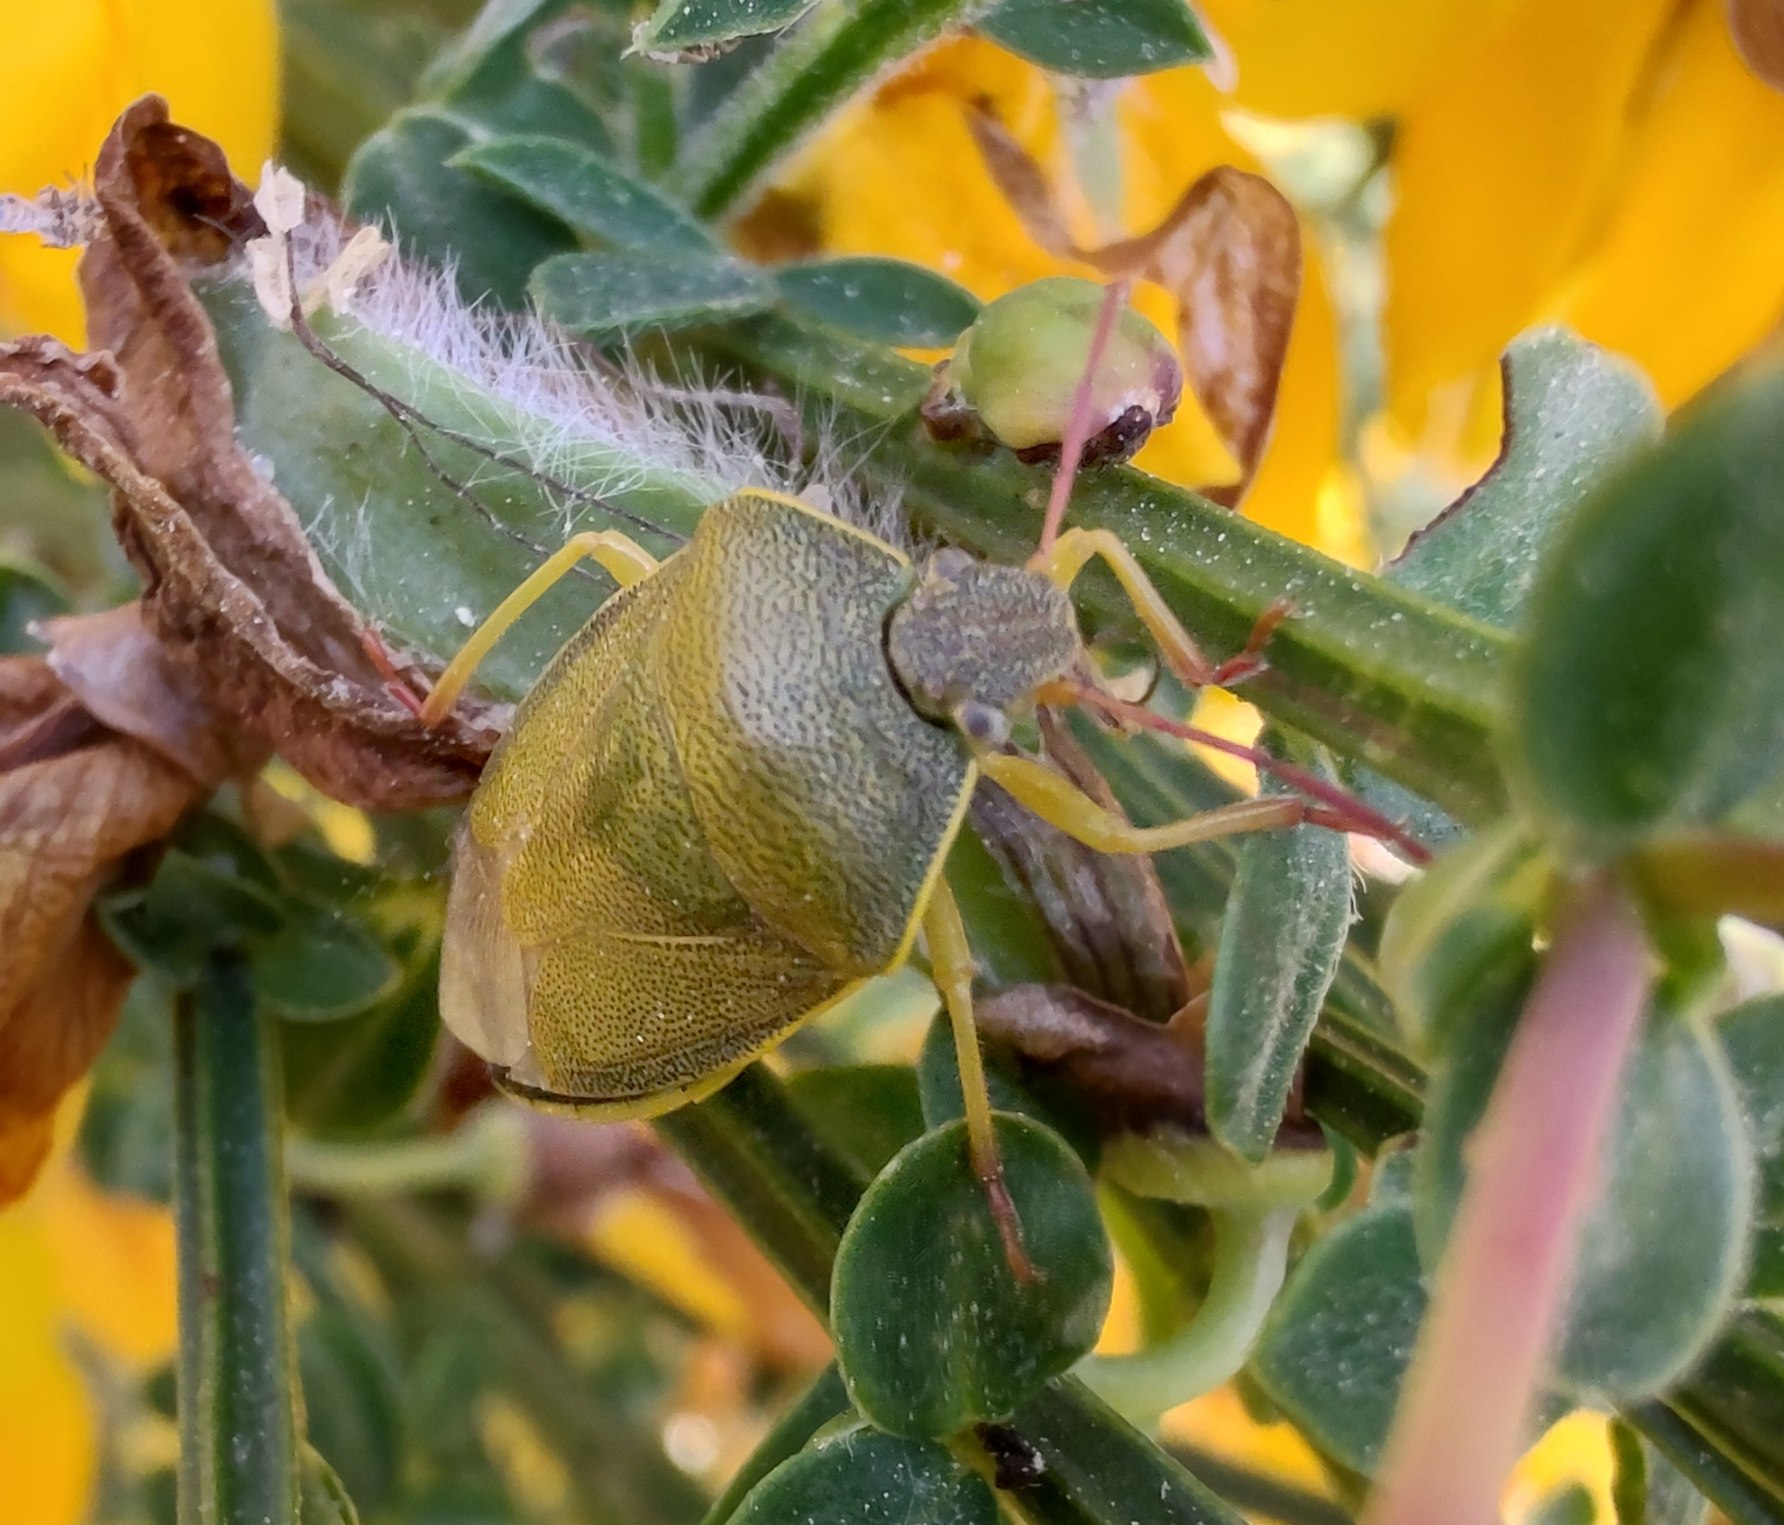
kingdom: Animalia
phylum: Arthropoda
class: Insecta
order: Hemiptera
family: Pentatomidae
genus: Piezodorus
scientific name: Piezodorus lituratus
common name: Gyvelbredtæge
